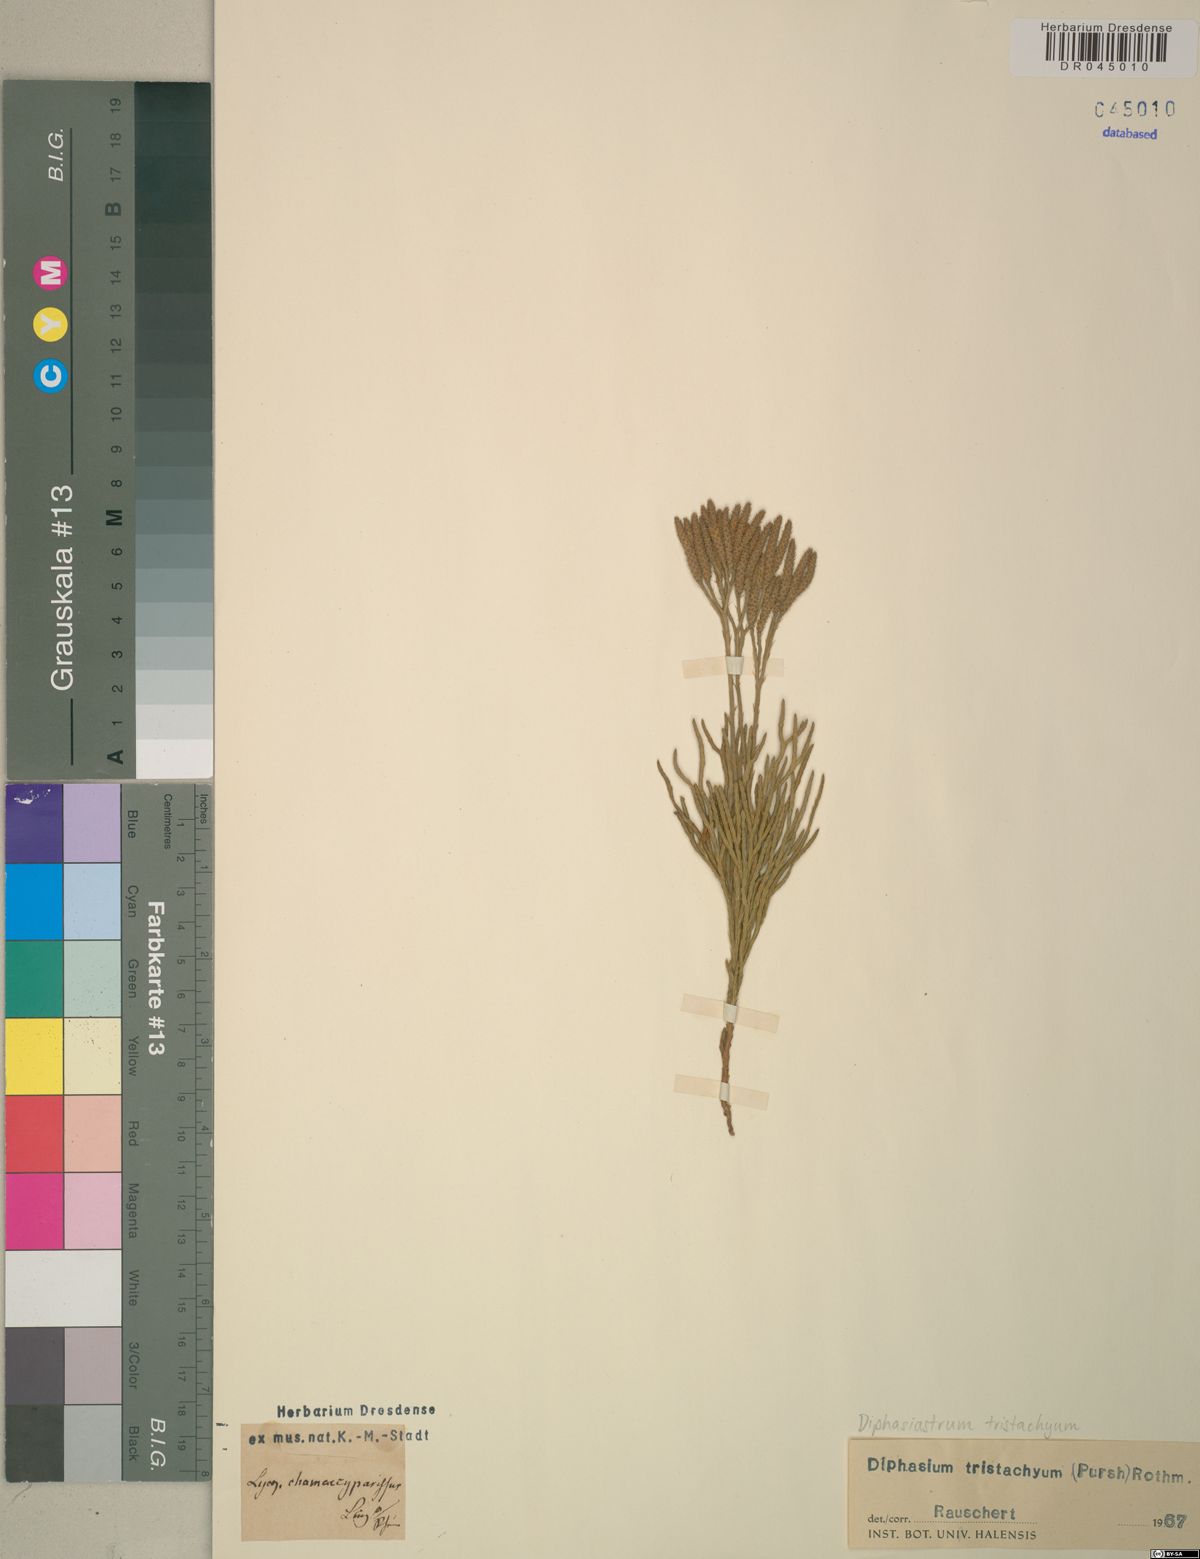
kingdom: Plantae
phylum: Tracheophyta
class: Lycopodiopsida
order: Lycopodiales
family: Lycopodiaceae
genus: Diphasiastrum
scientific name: Diphasiastrum tristachyum
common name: Blue ground-cedar
